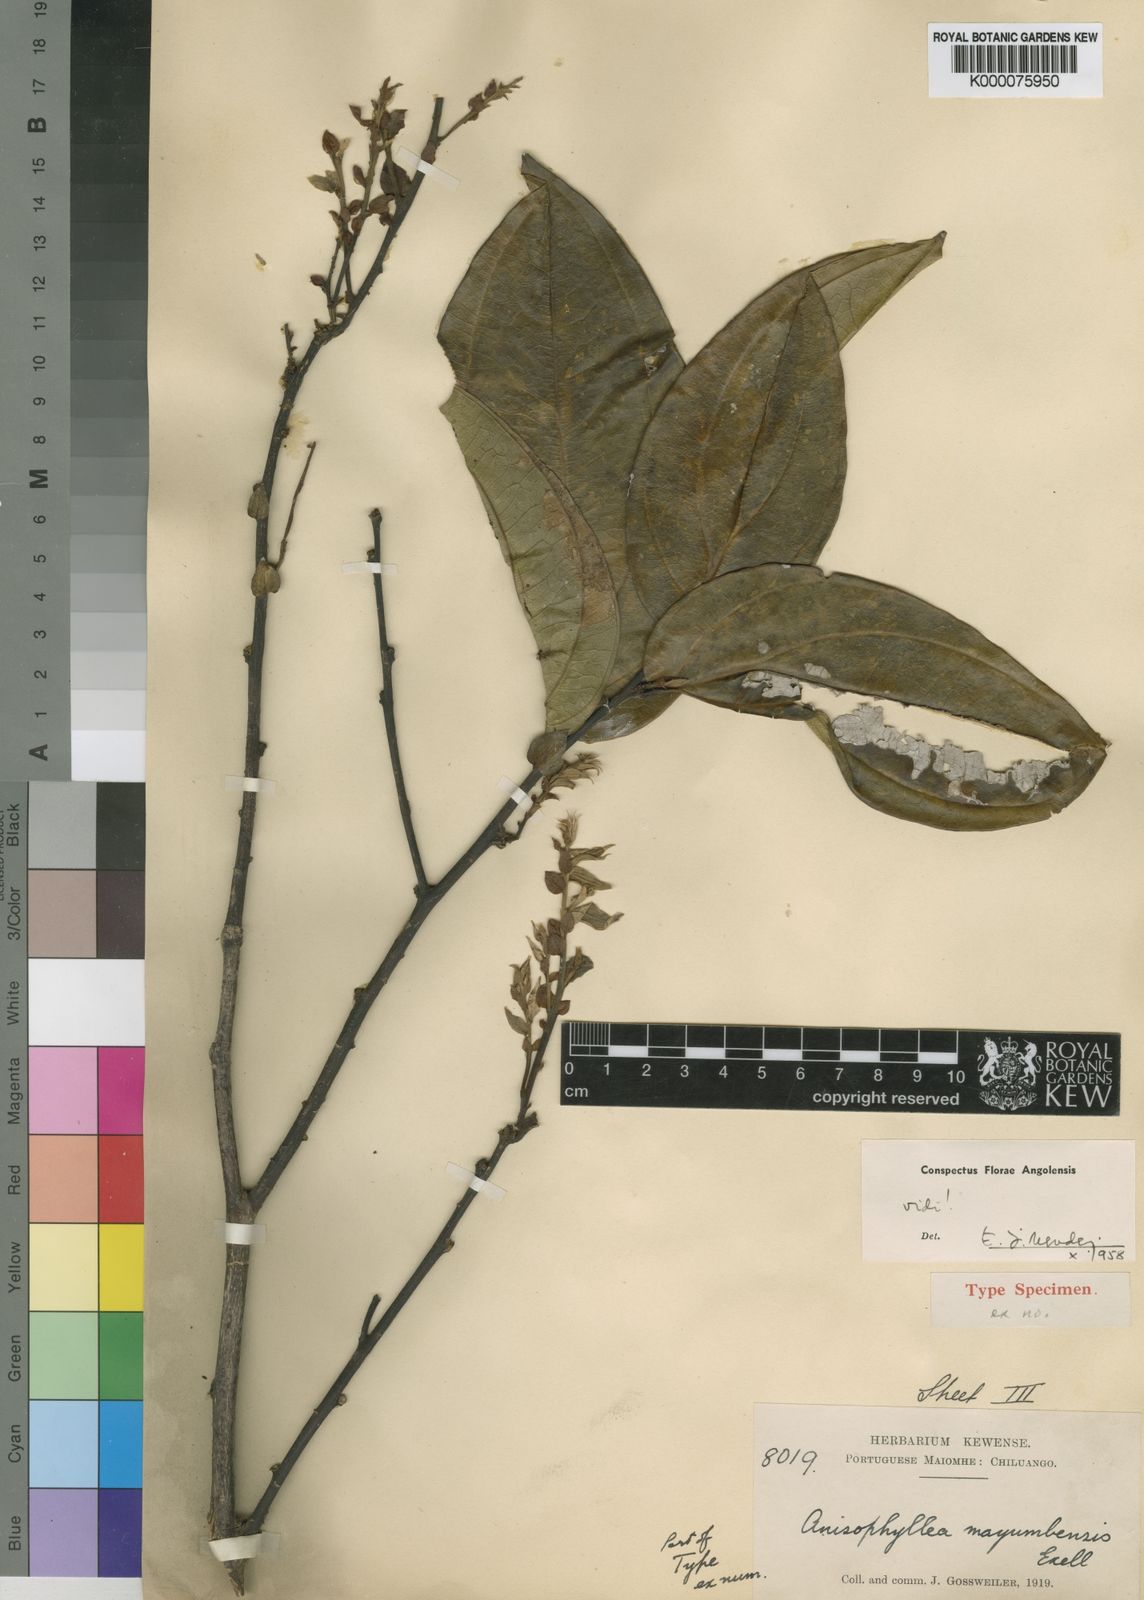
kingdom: Plantae
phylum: Tracheophyta
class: Magnoliopsida
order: Cucurbitales
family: Anisophylleaceae
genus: Anisophyllea
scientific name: Anisophyllea mayumbensis
